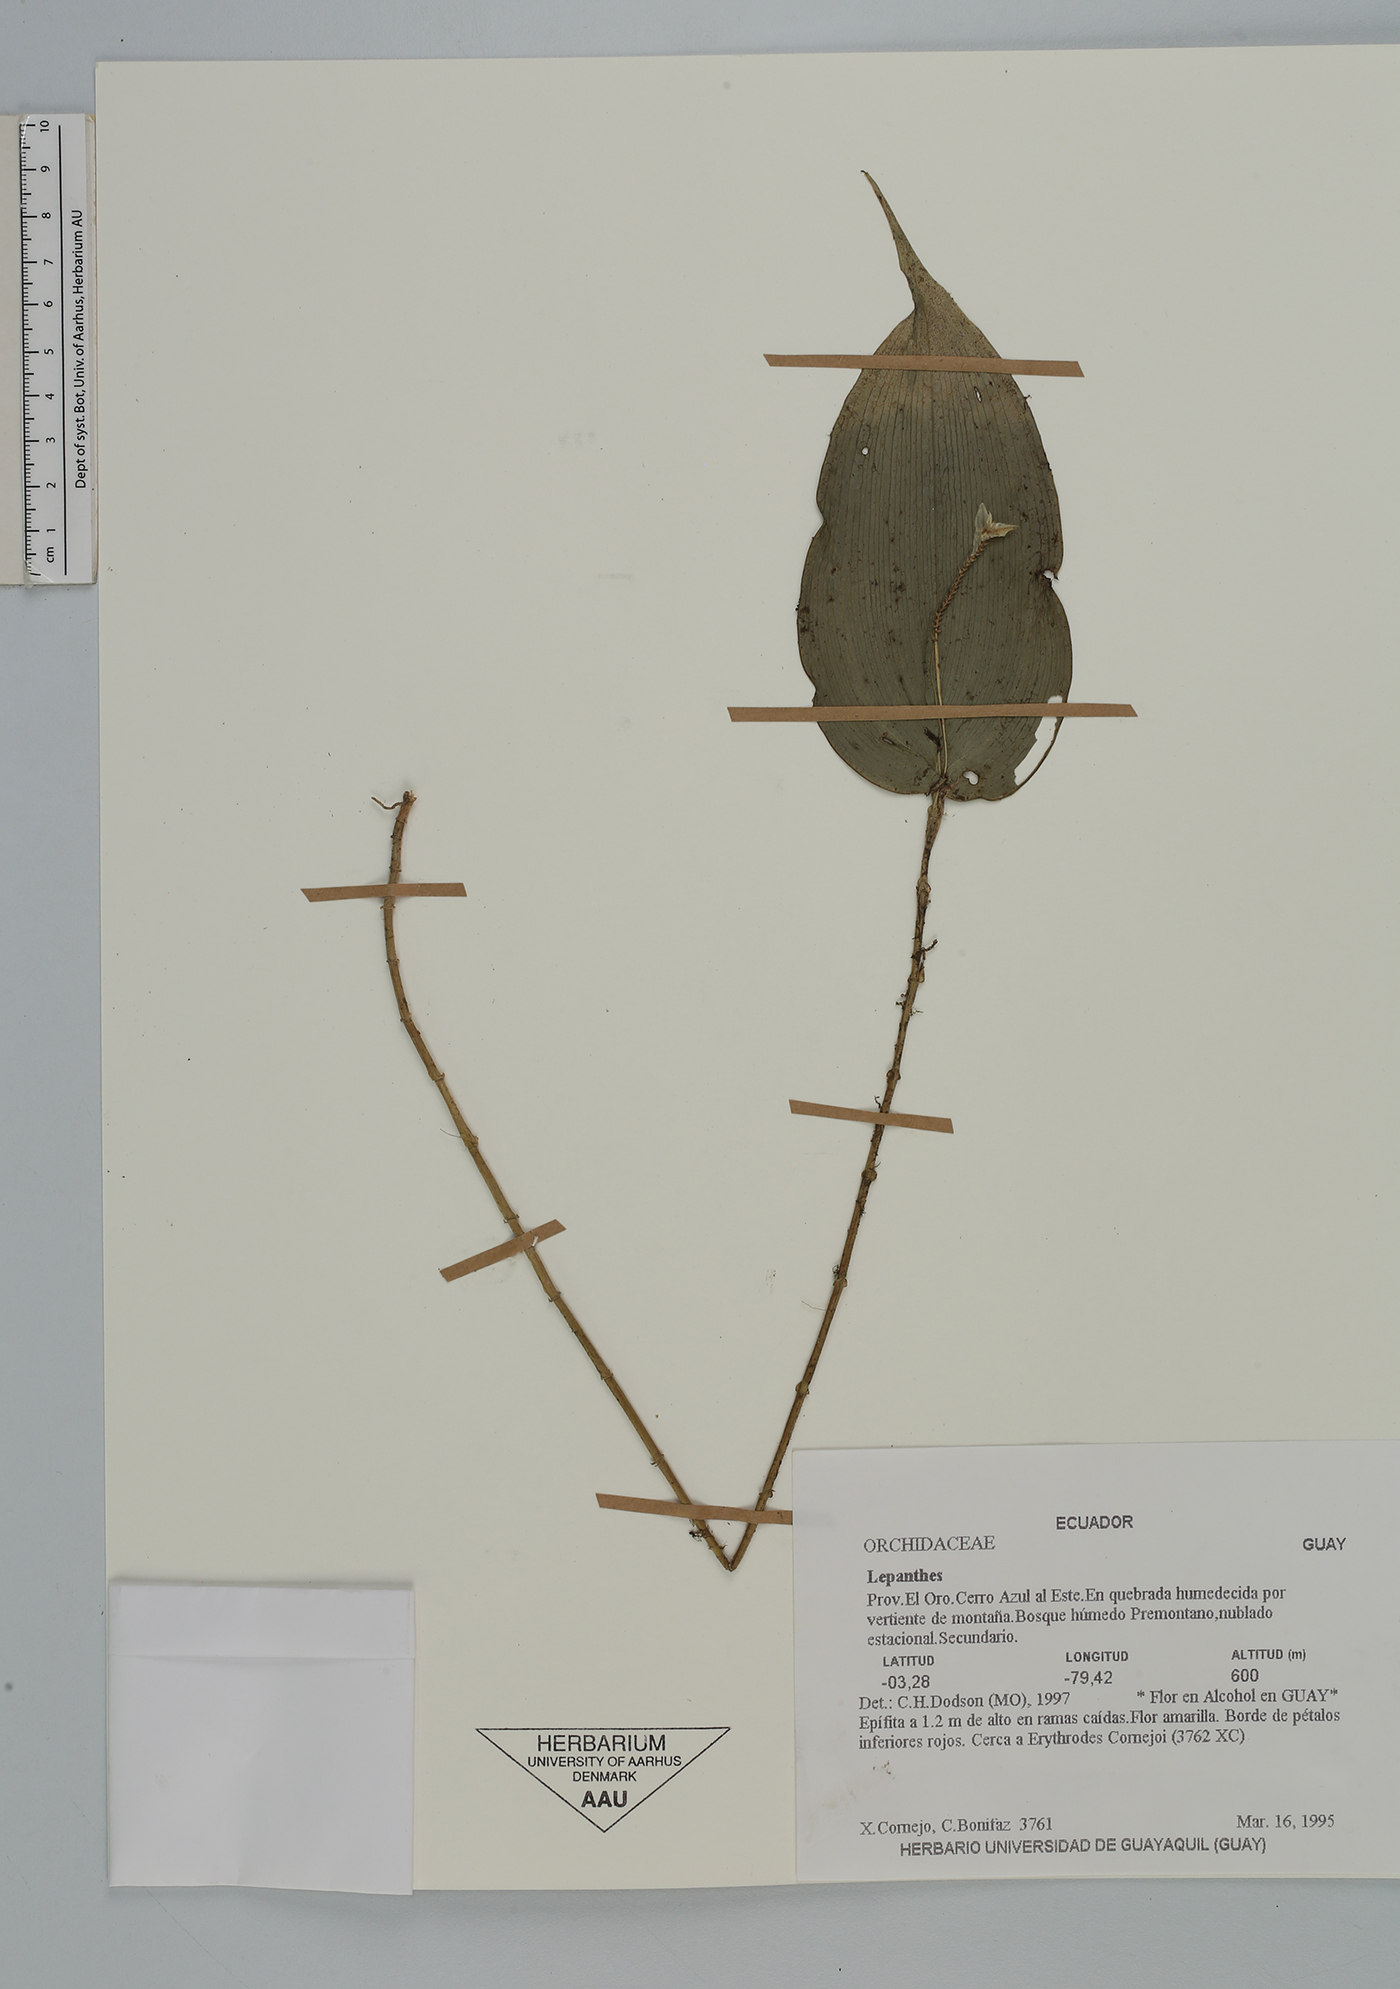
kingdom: Plantae
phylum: Tracheophyta
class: Liliopsida
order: Asparagales
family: Orchidaceae
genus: Lepanthes
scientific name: Lepanthes
